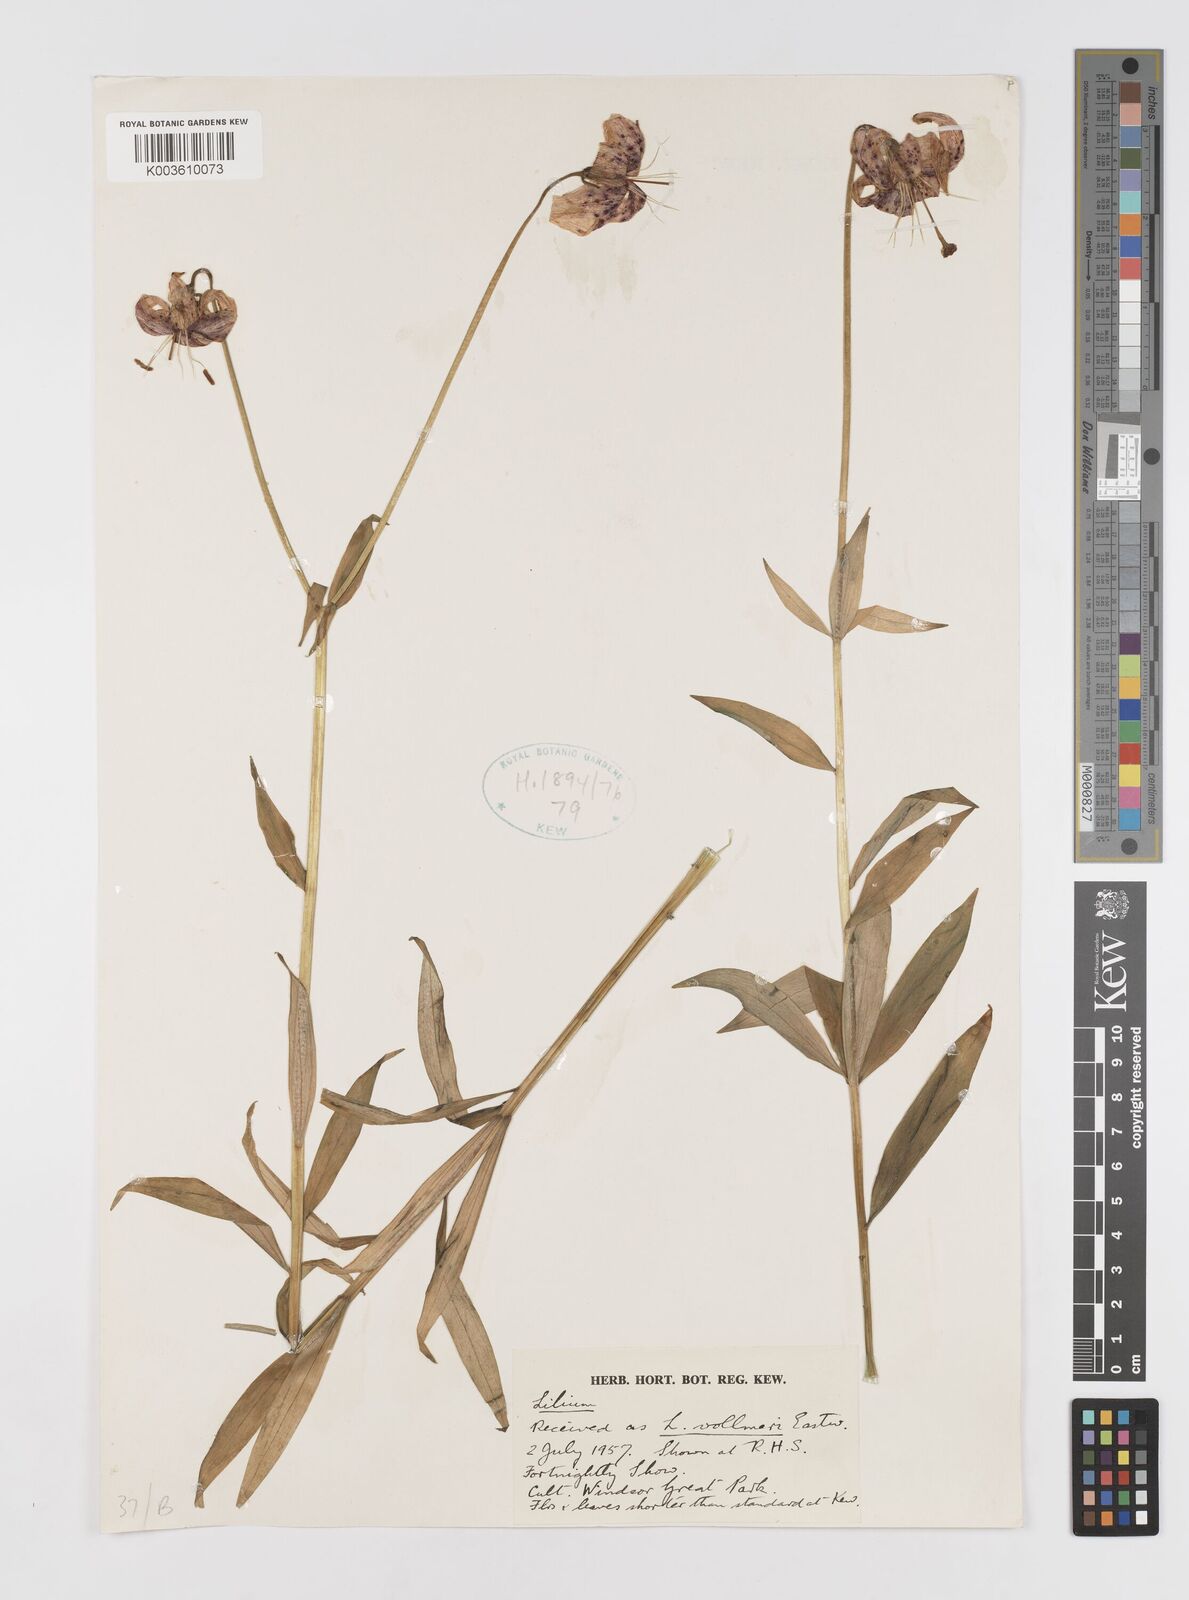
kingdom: Plantae
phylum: Tracheophyta
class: Liliopsida
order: Liliales
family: Liliaceae
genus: Lilium
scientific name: Lilium pardalinum
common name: Panther lily
